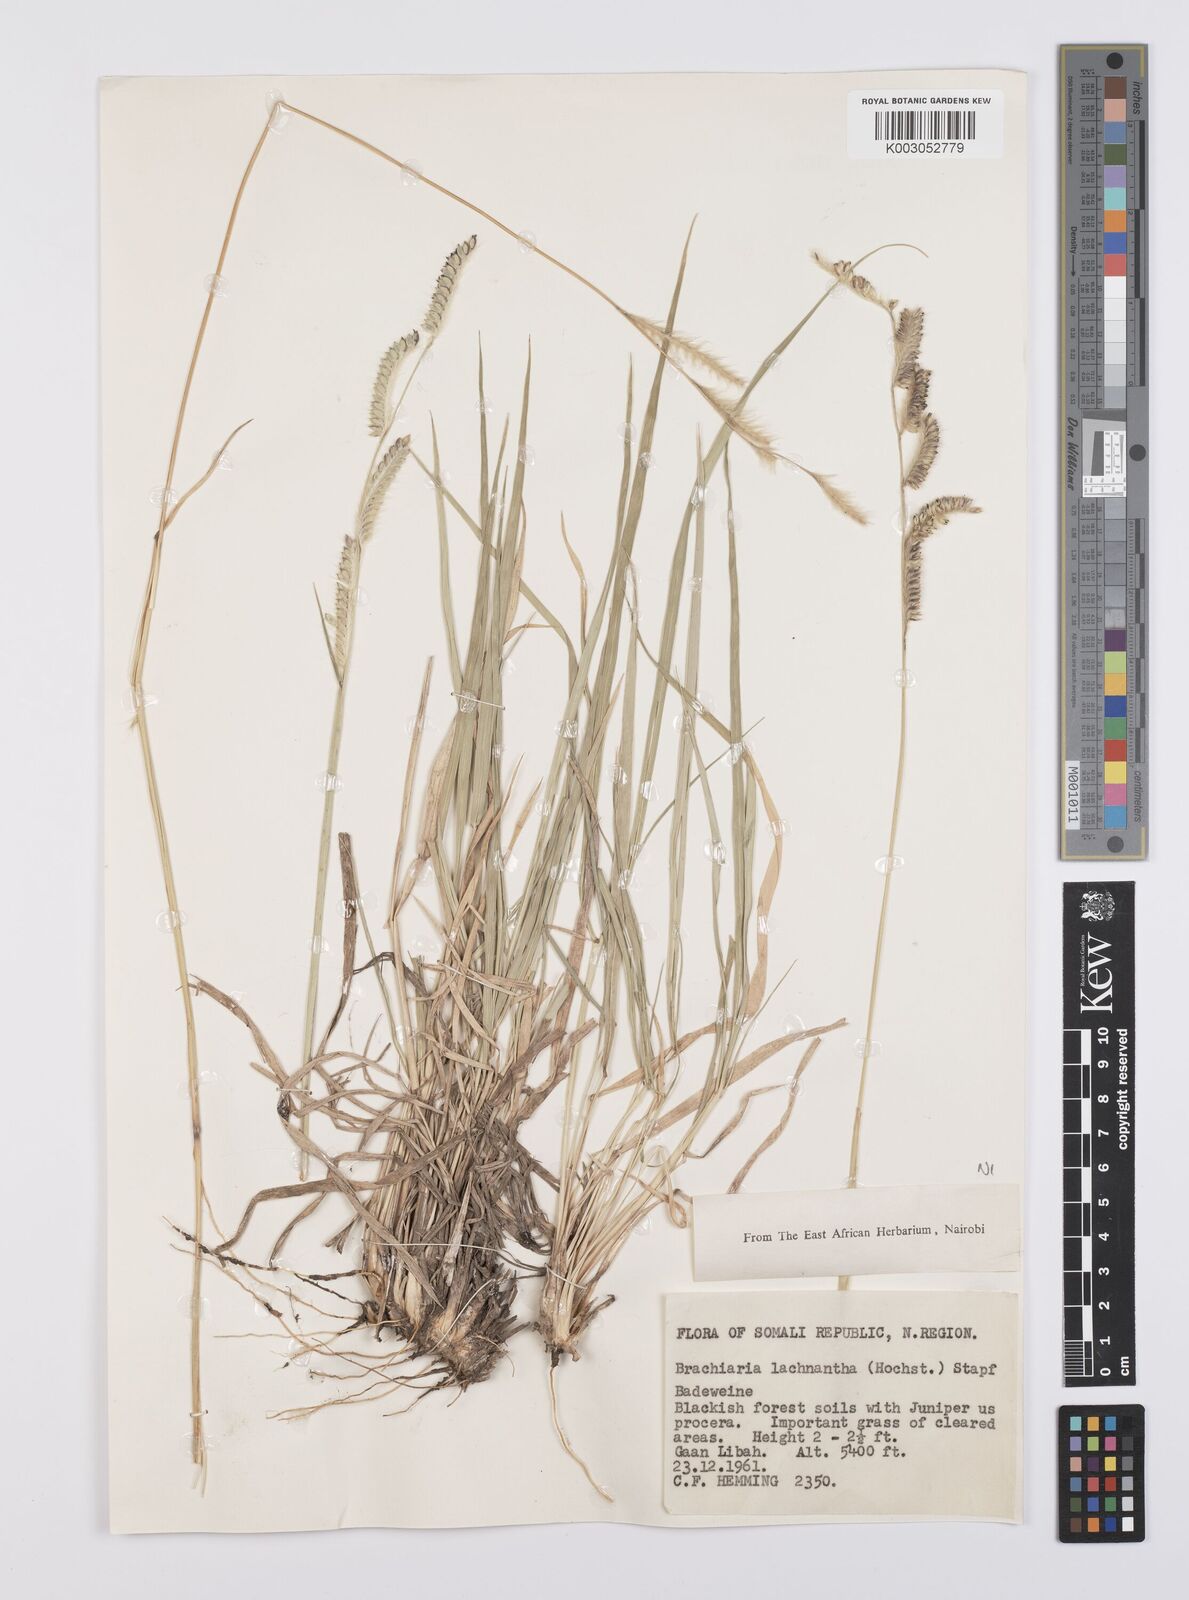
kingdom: Plantae
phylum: Tracheophyta
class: Liliopsida
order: Poales
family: Poaceae
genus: Urochloa
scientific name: Urochloa lachnantha
